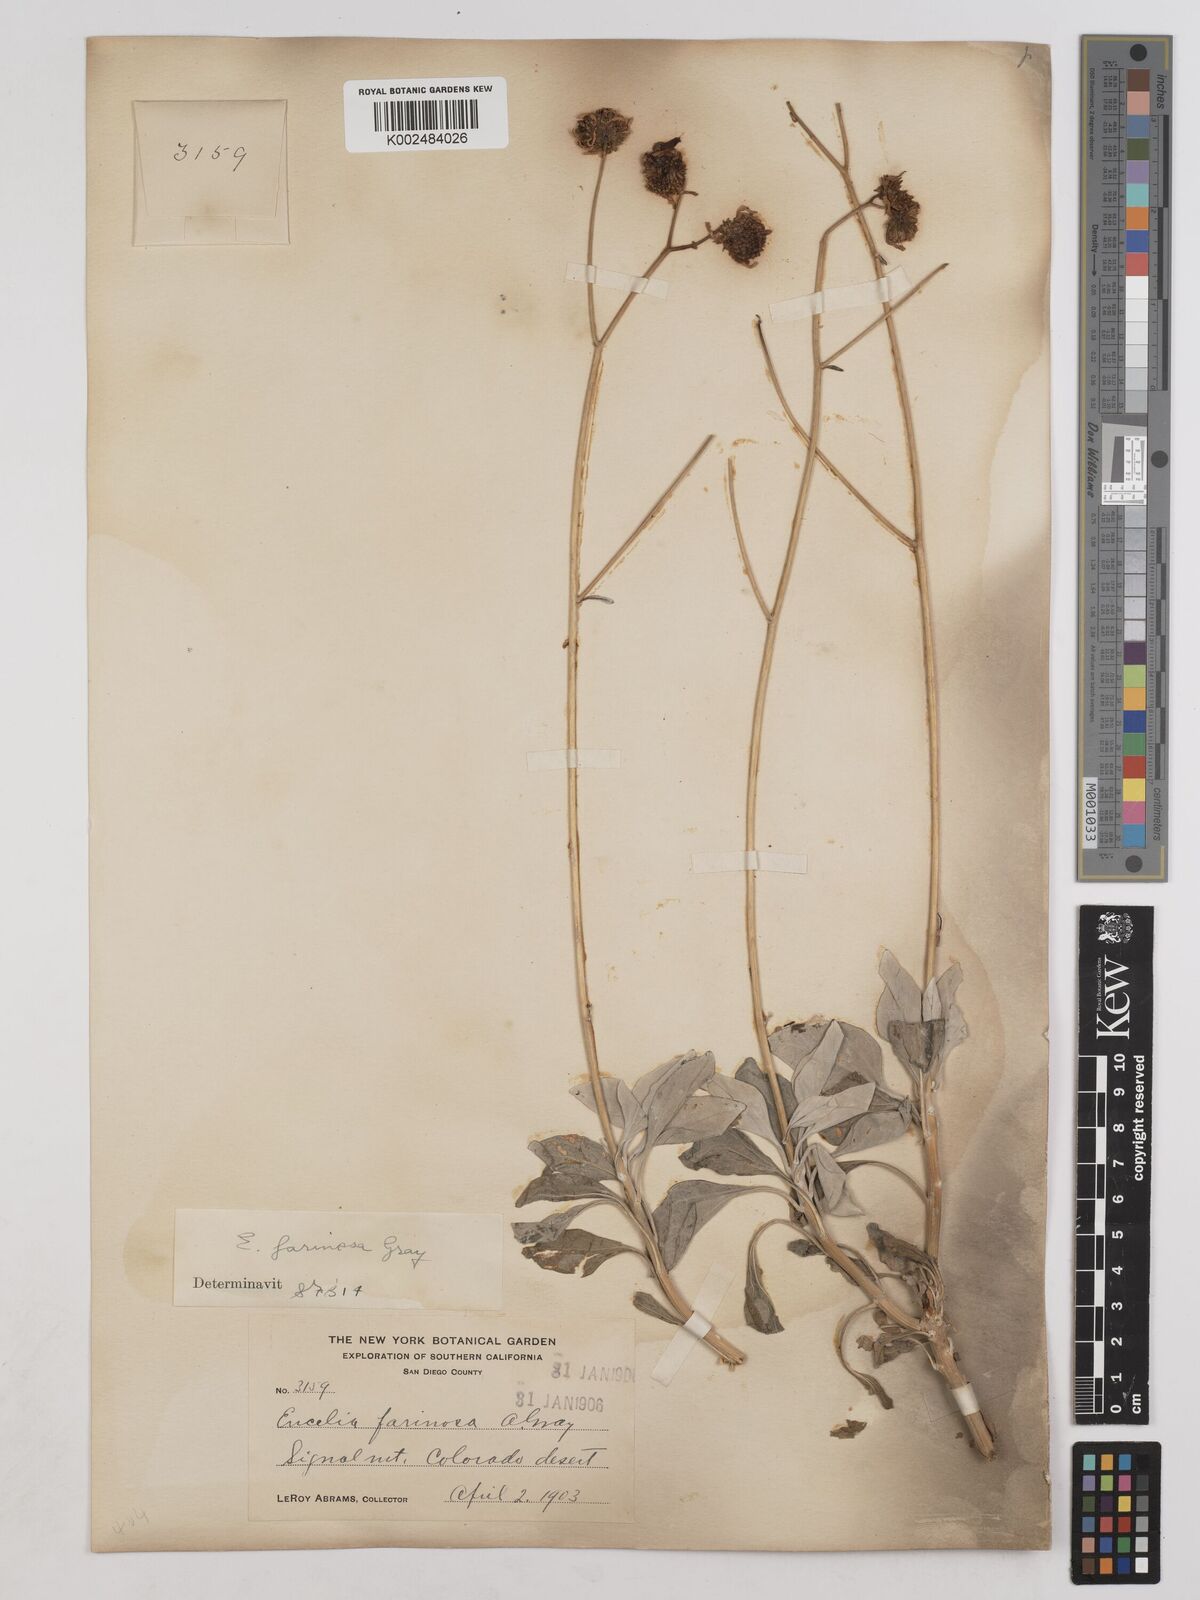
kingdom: Plantae
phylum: Tracheophyta
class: Magnoliopsida
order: Asterales
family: Asteraceae
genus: Encelia
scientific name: Encelia farinosa
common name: Brittlebush
